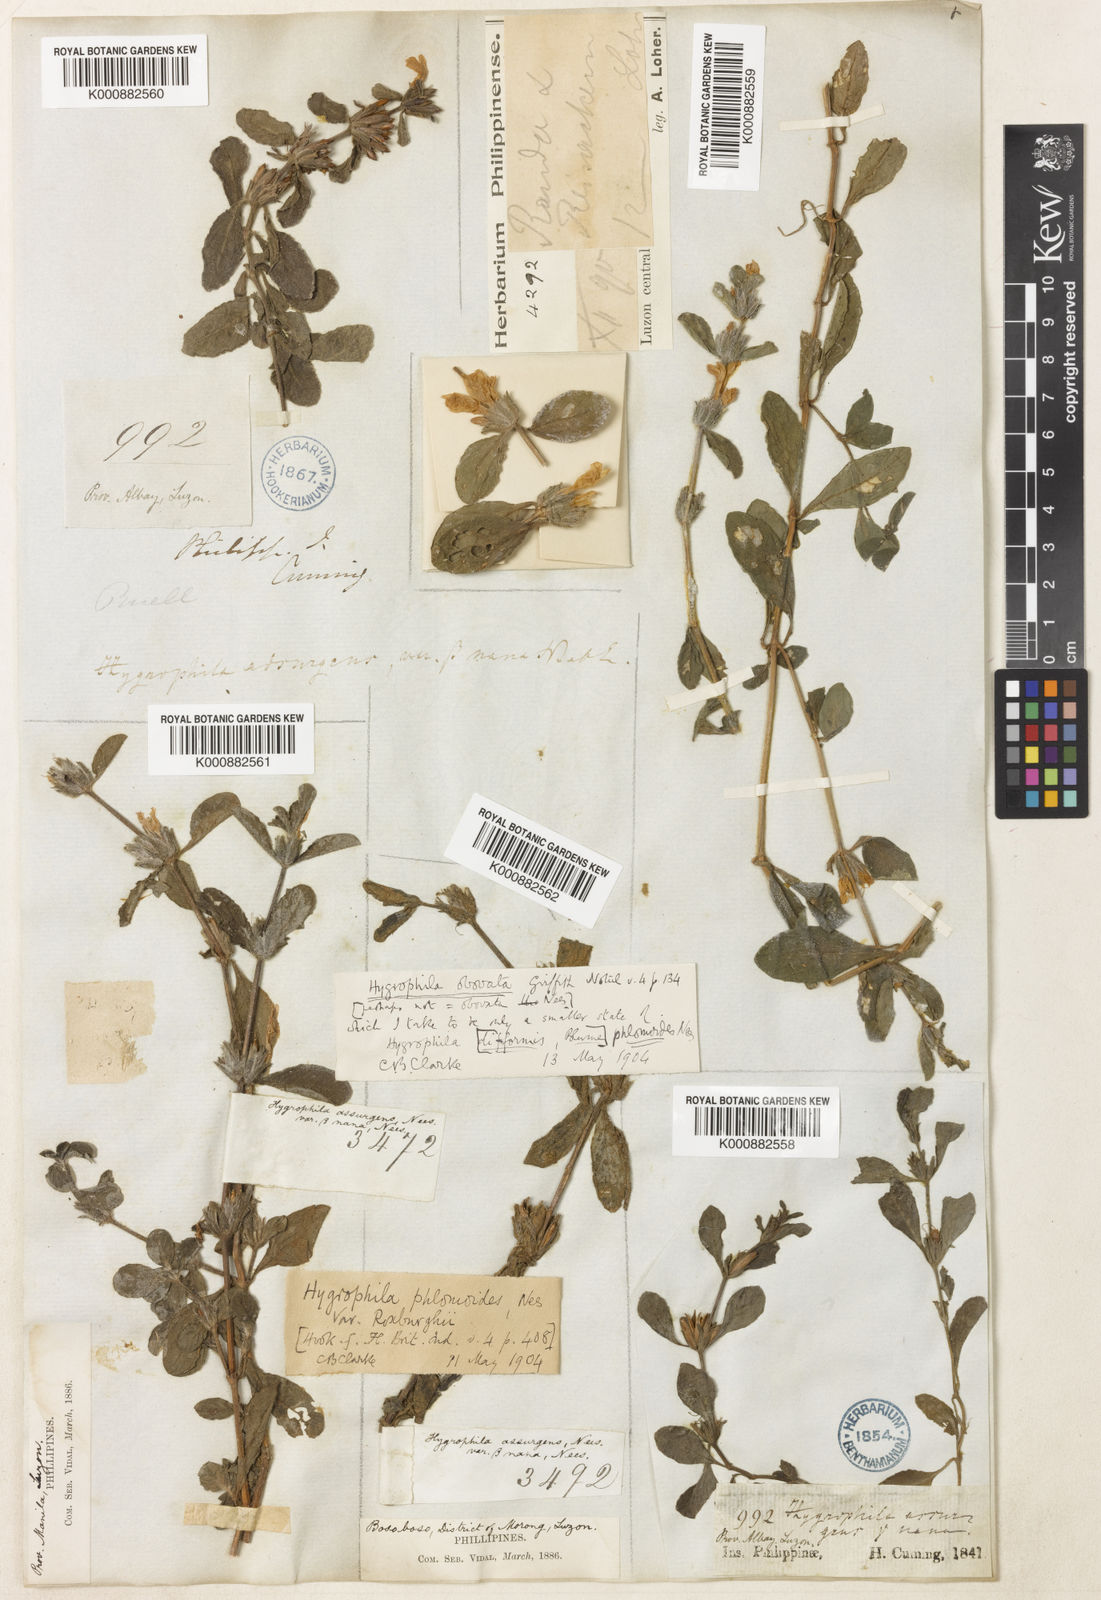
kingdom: Plantae
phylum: Tracheophyta
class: Magnoliopsida
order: Lamiales
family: Acanthaceae
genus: Hygrophila
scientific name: Hygrophila ringens
